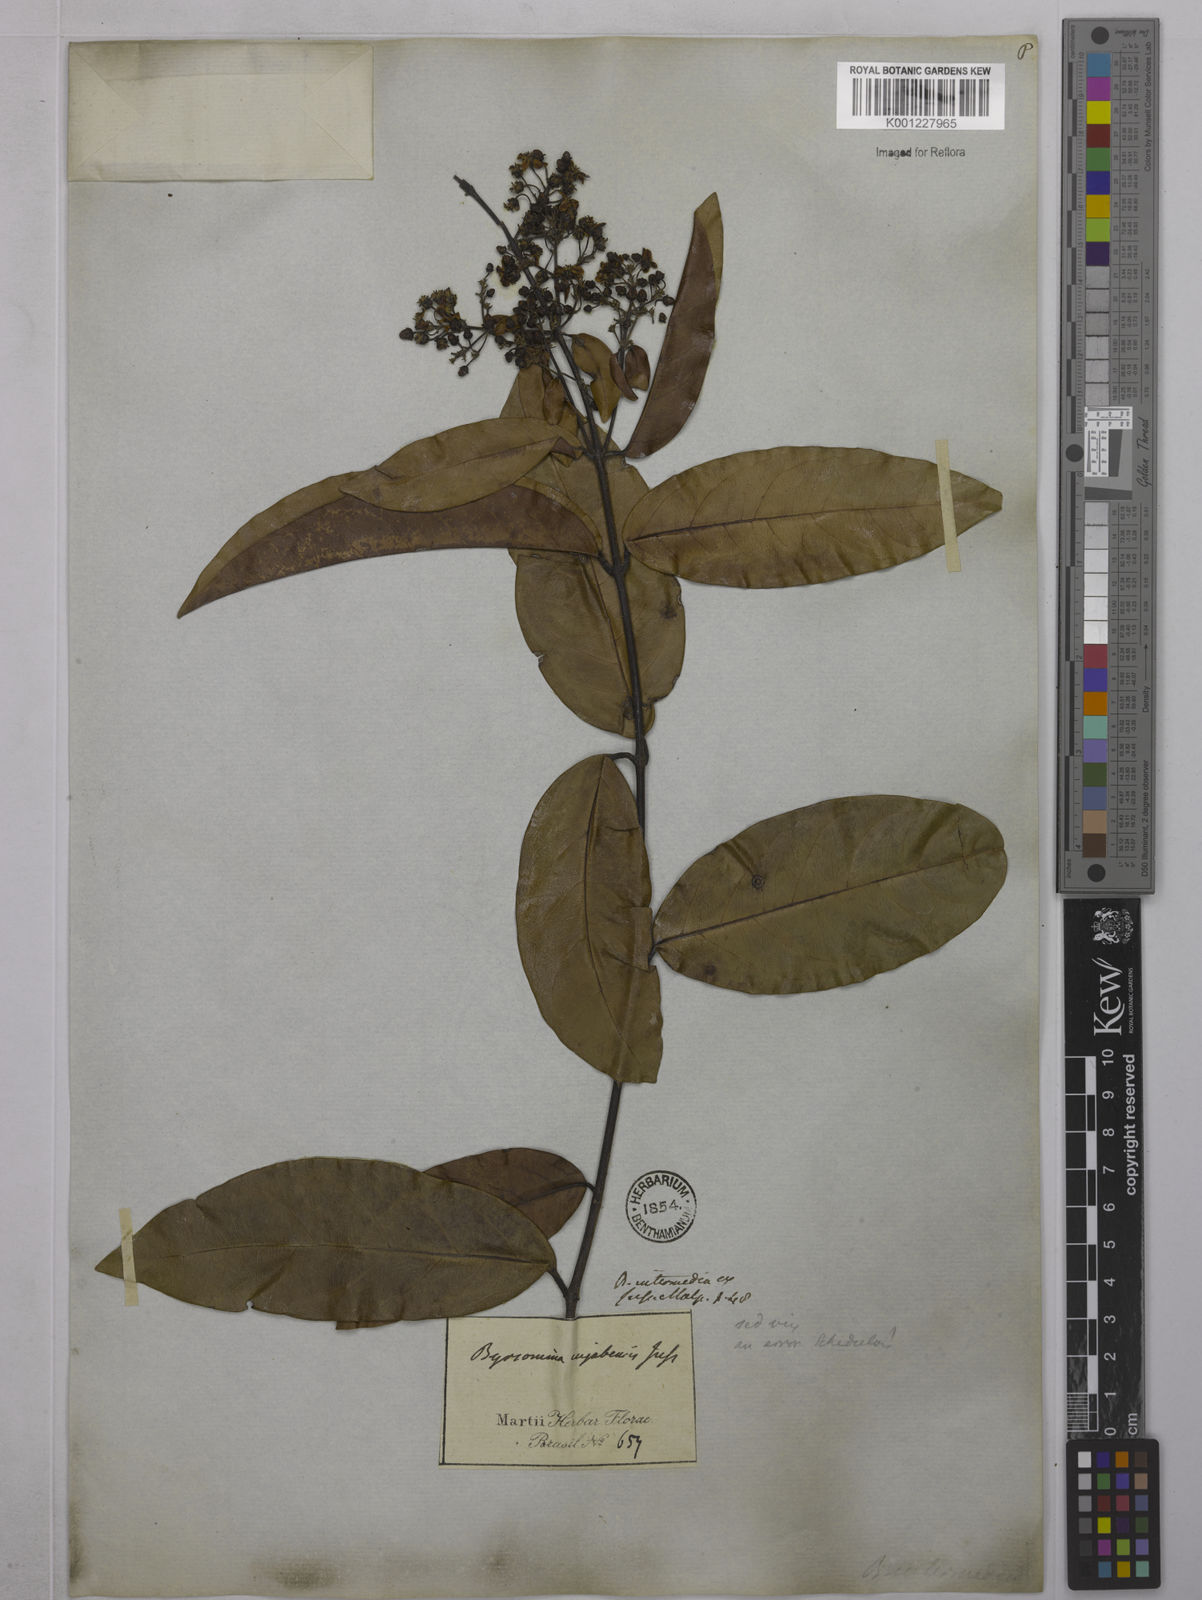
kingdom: Plantae
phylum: Tracheophyta
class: Magnoliopsida
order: Malpighiales
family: Malpighiaceae
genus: Niedenzuella
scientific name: Niedenzuella lasiandra
